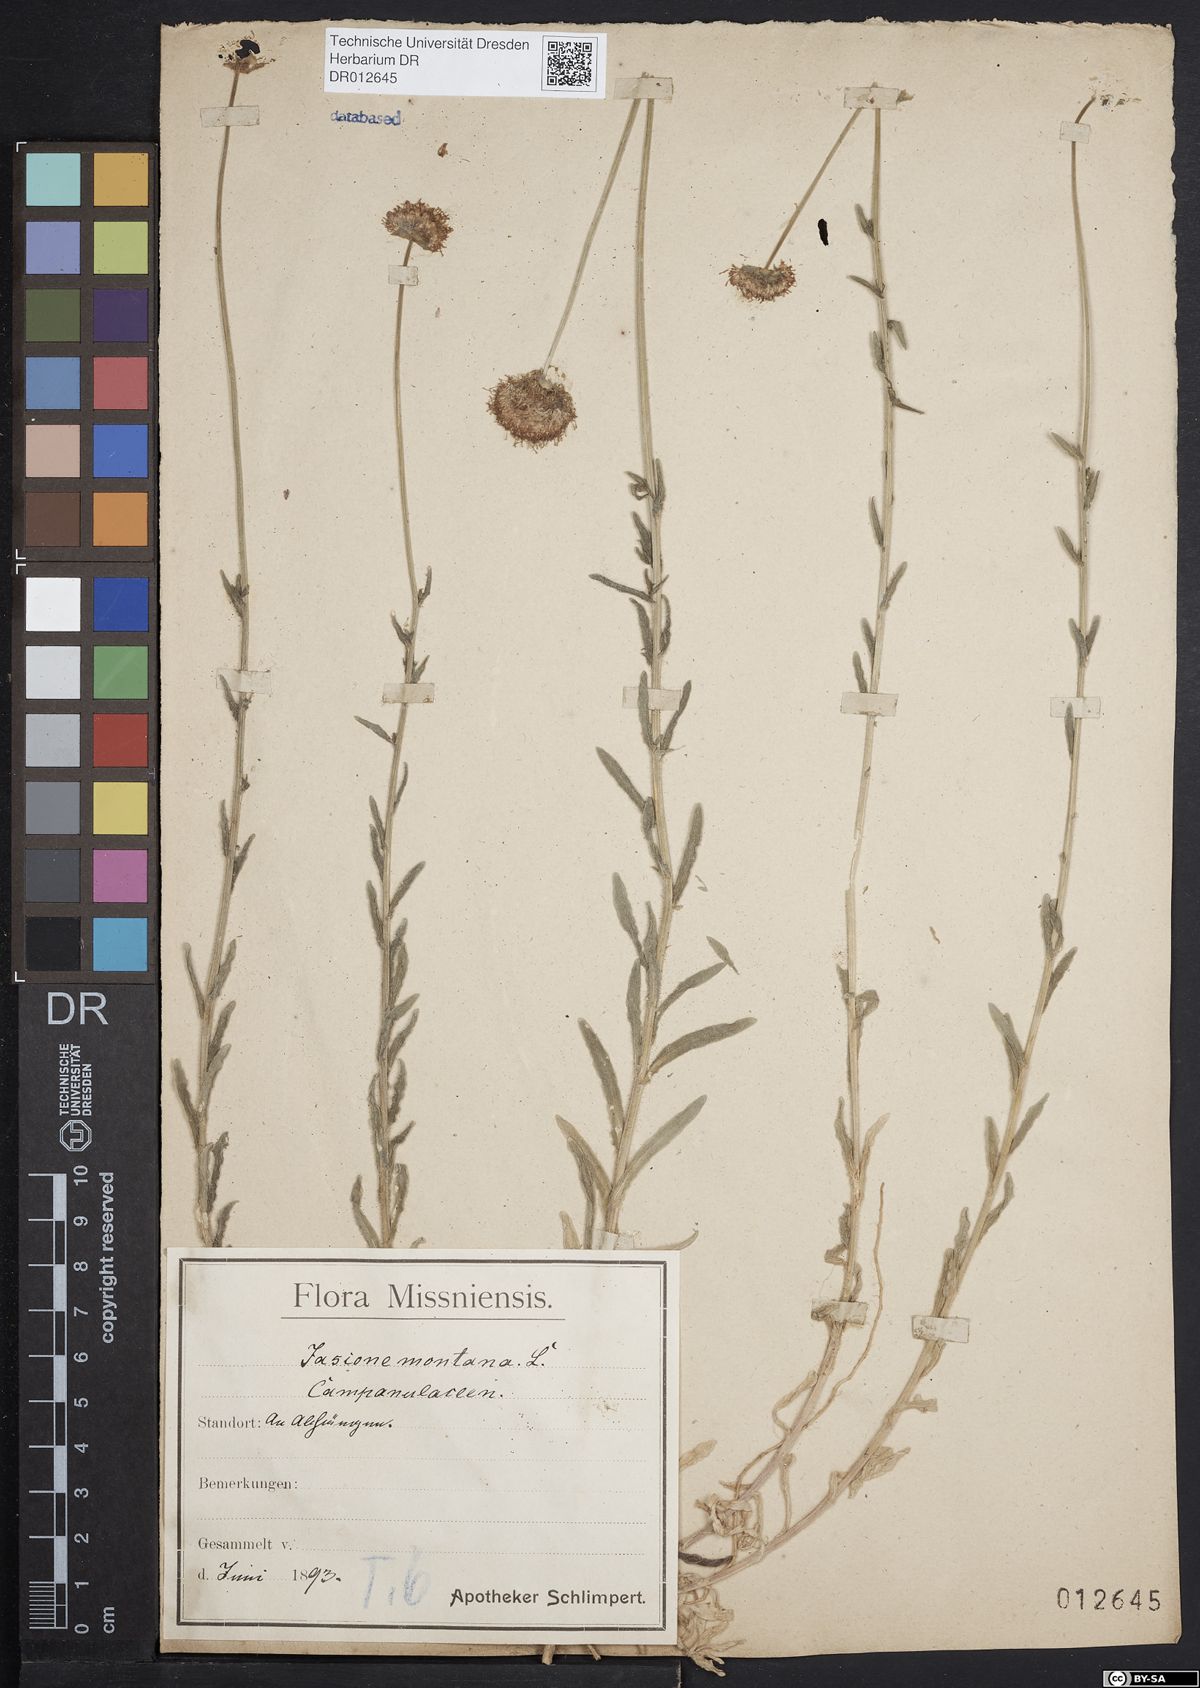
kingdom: Plantae
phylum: Tracheophyta
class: Magnoliopsida
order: Asterales
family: Campanulaceae
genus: Jasione
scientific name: Jasione montana
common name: Sheep's-bit
